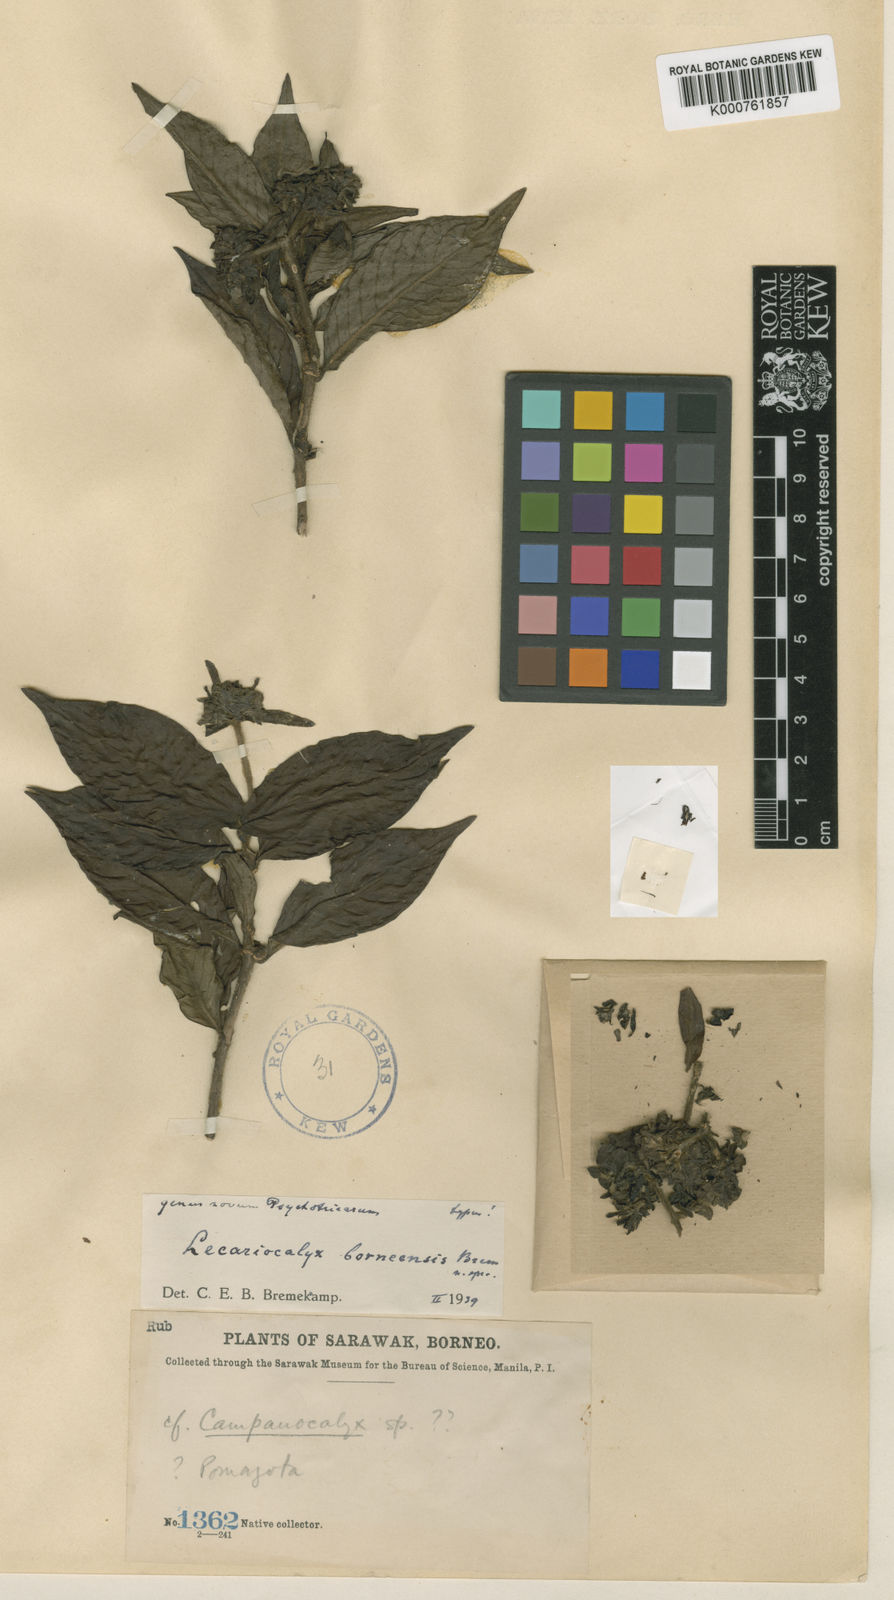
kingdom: Plantae
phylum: Tracheophyta
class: Magnoliopsida
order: Gentianales
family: Rubiaceae
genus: Lecariocalyx
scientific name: Lecariocalyx borneensis
